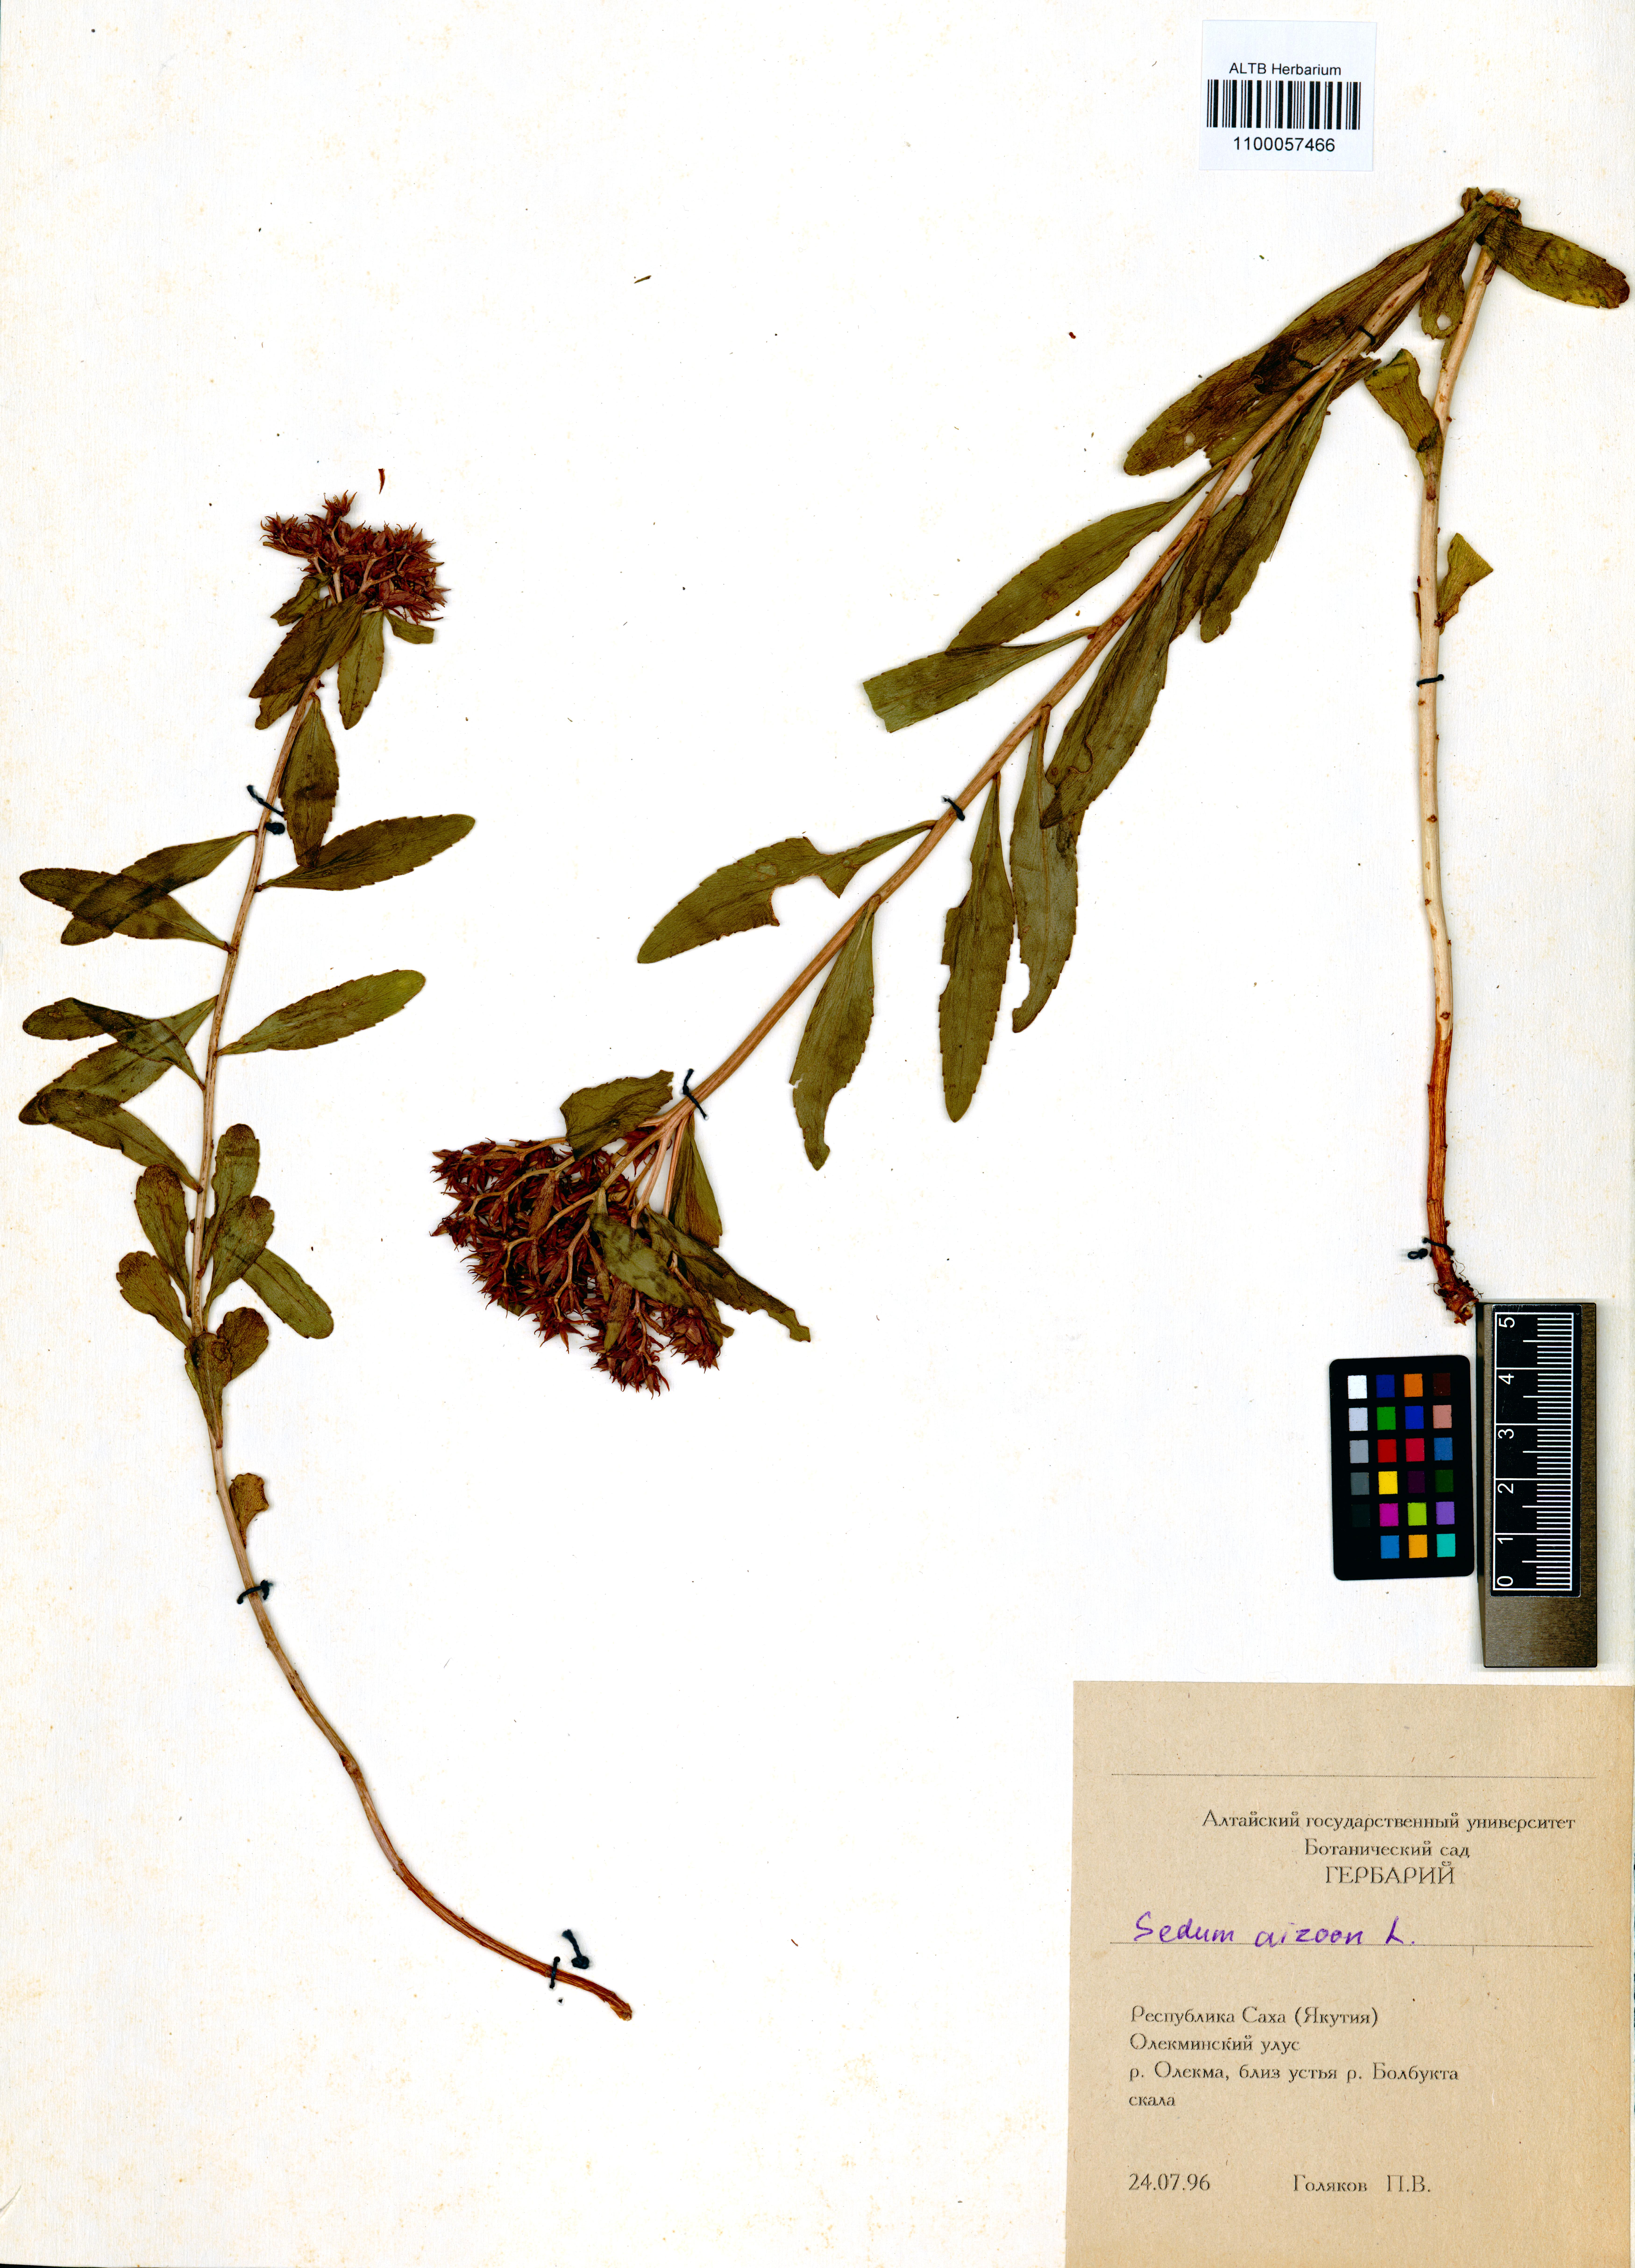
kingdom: Plantae
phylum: Tracheophyta
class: Magnoliopsida
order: Saxifragales
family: Crassulaceae
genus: Phedimus
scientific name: Phedimus aizoon
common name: Orpin aizoon
